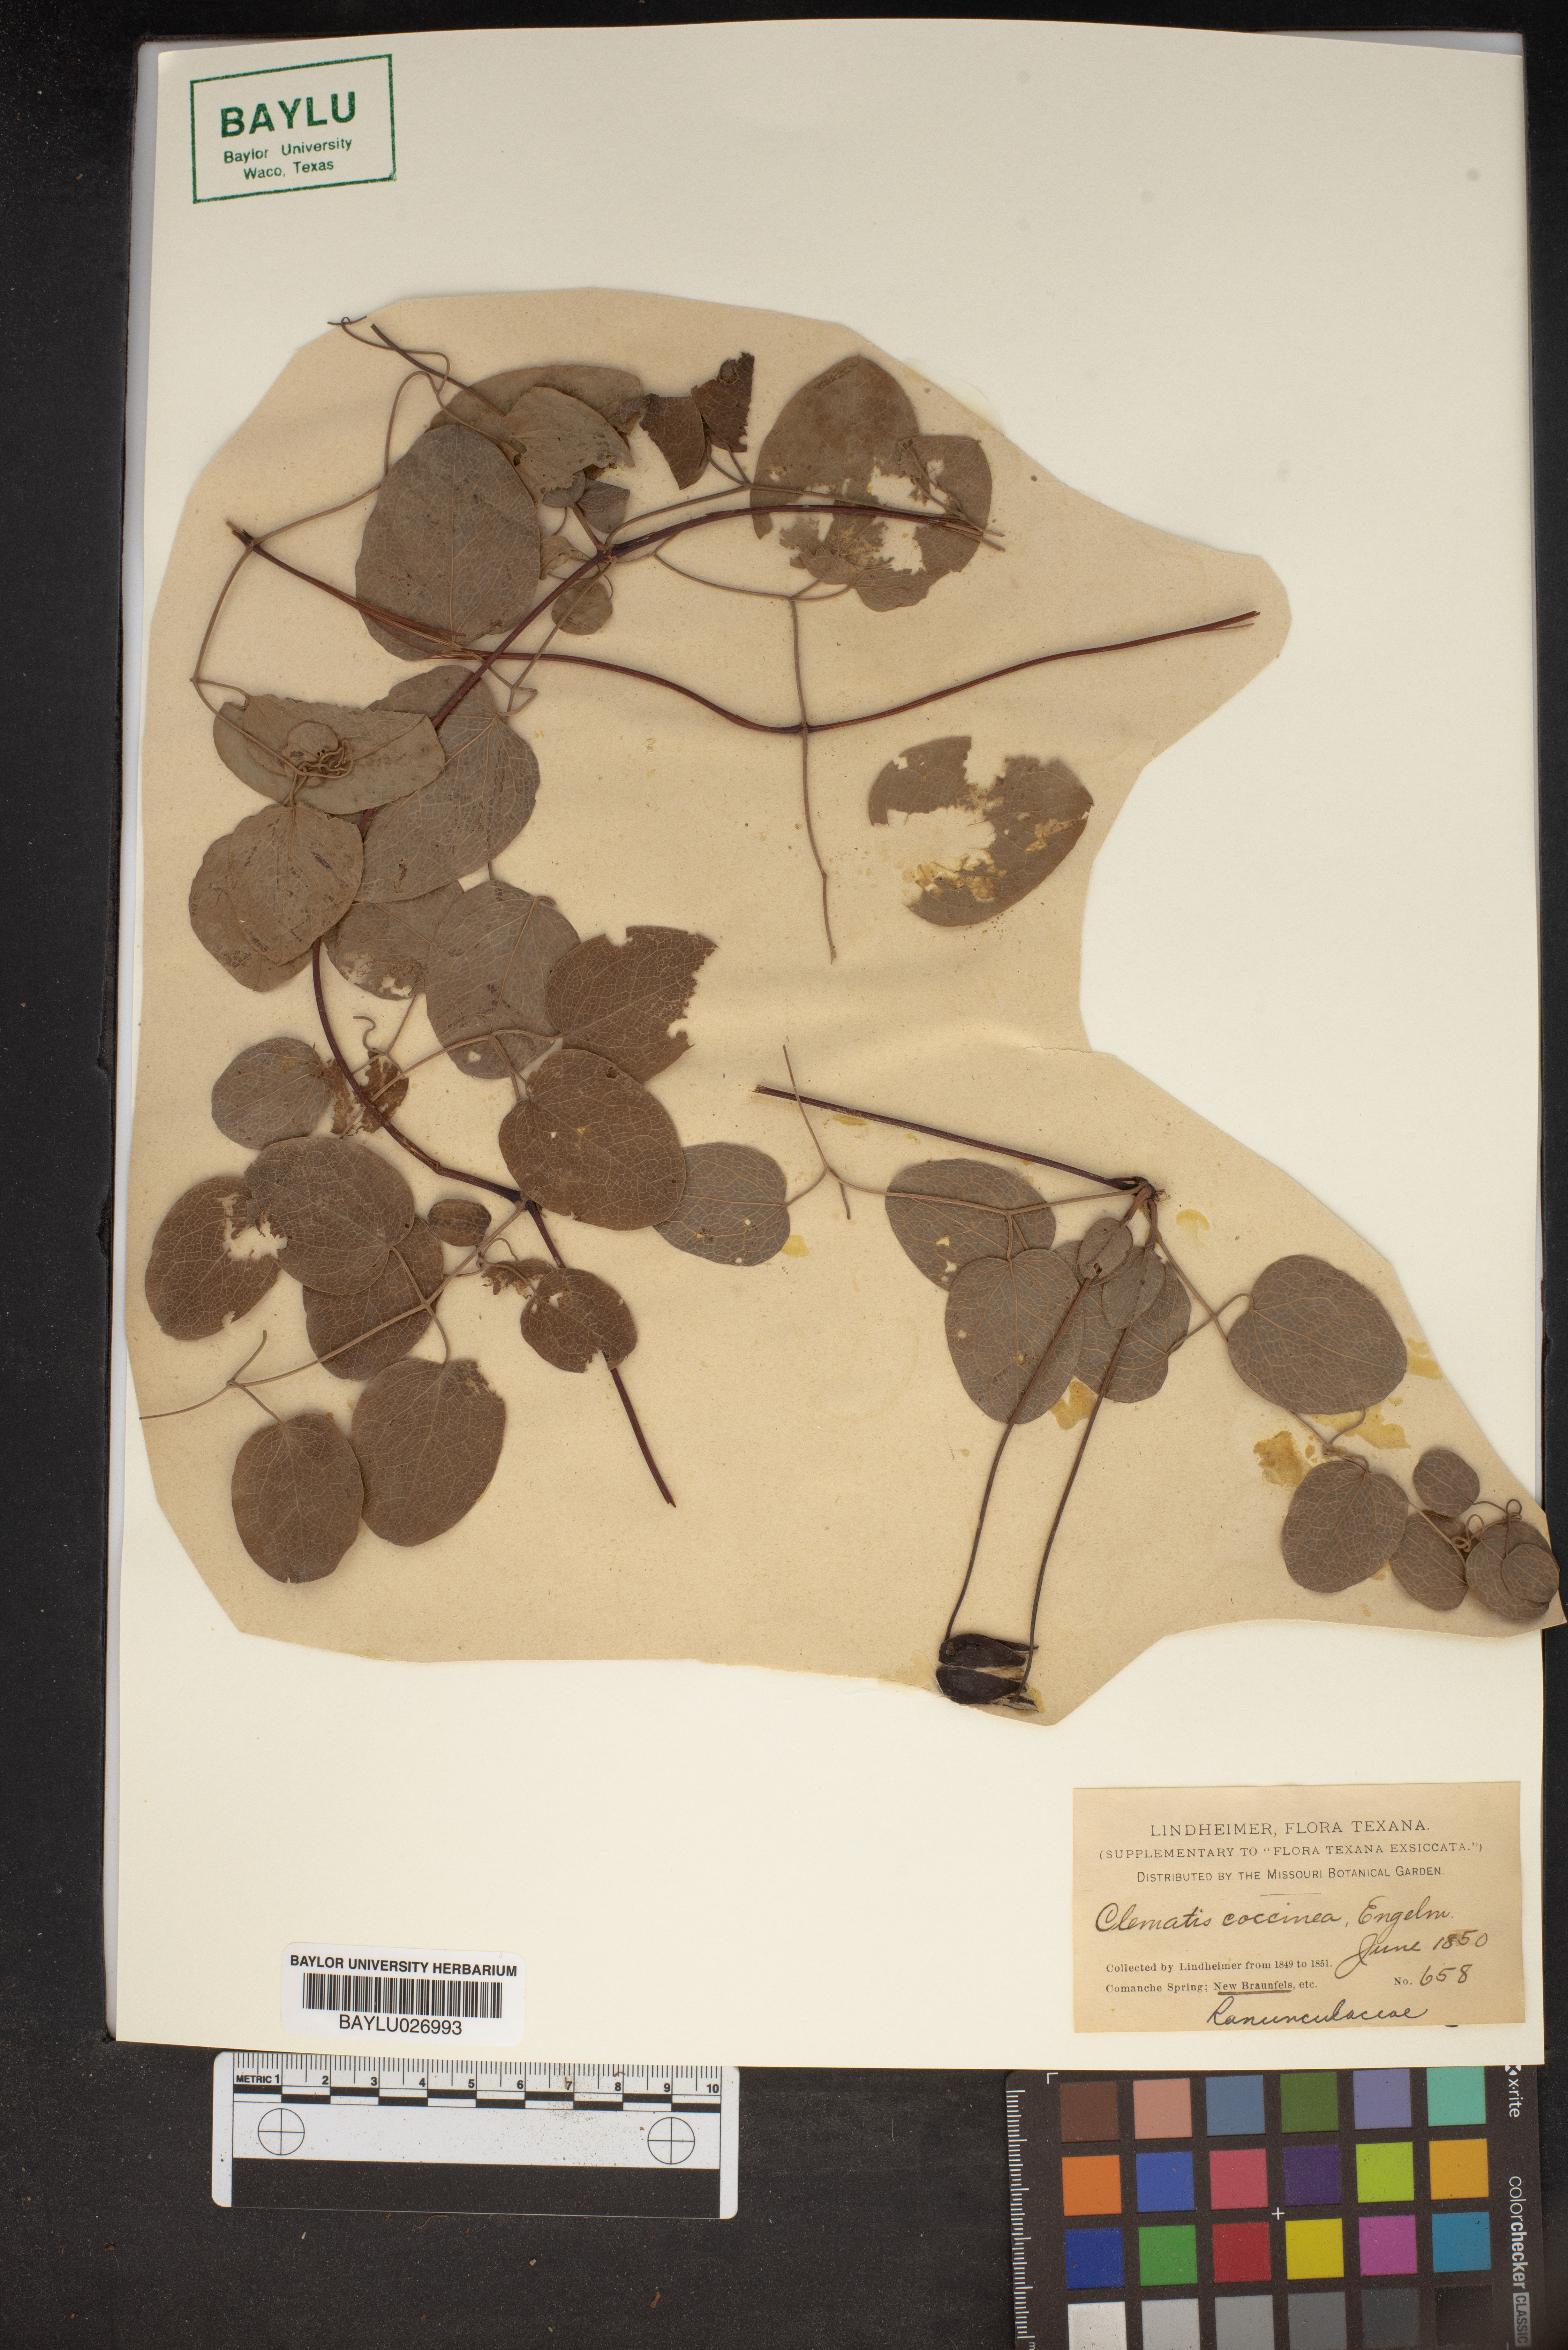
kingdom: Plantae
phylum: Tracheophyta
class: Magnoliopsida
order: Ranunculales
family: Ranunculaceae
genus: Clematis
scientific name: Clematis viorna
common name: Leather-flower
